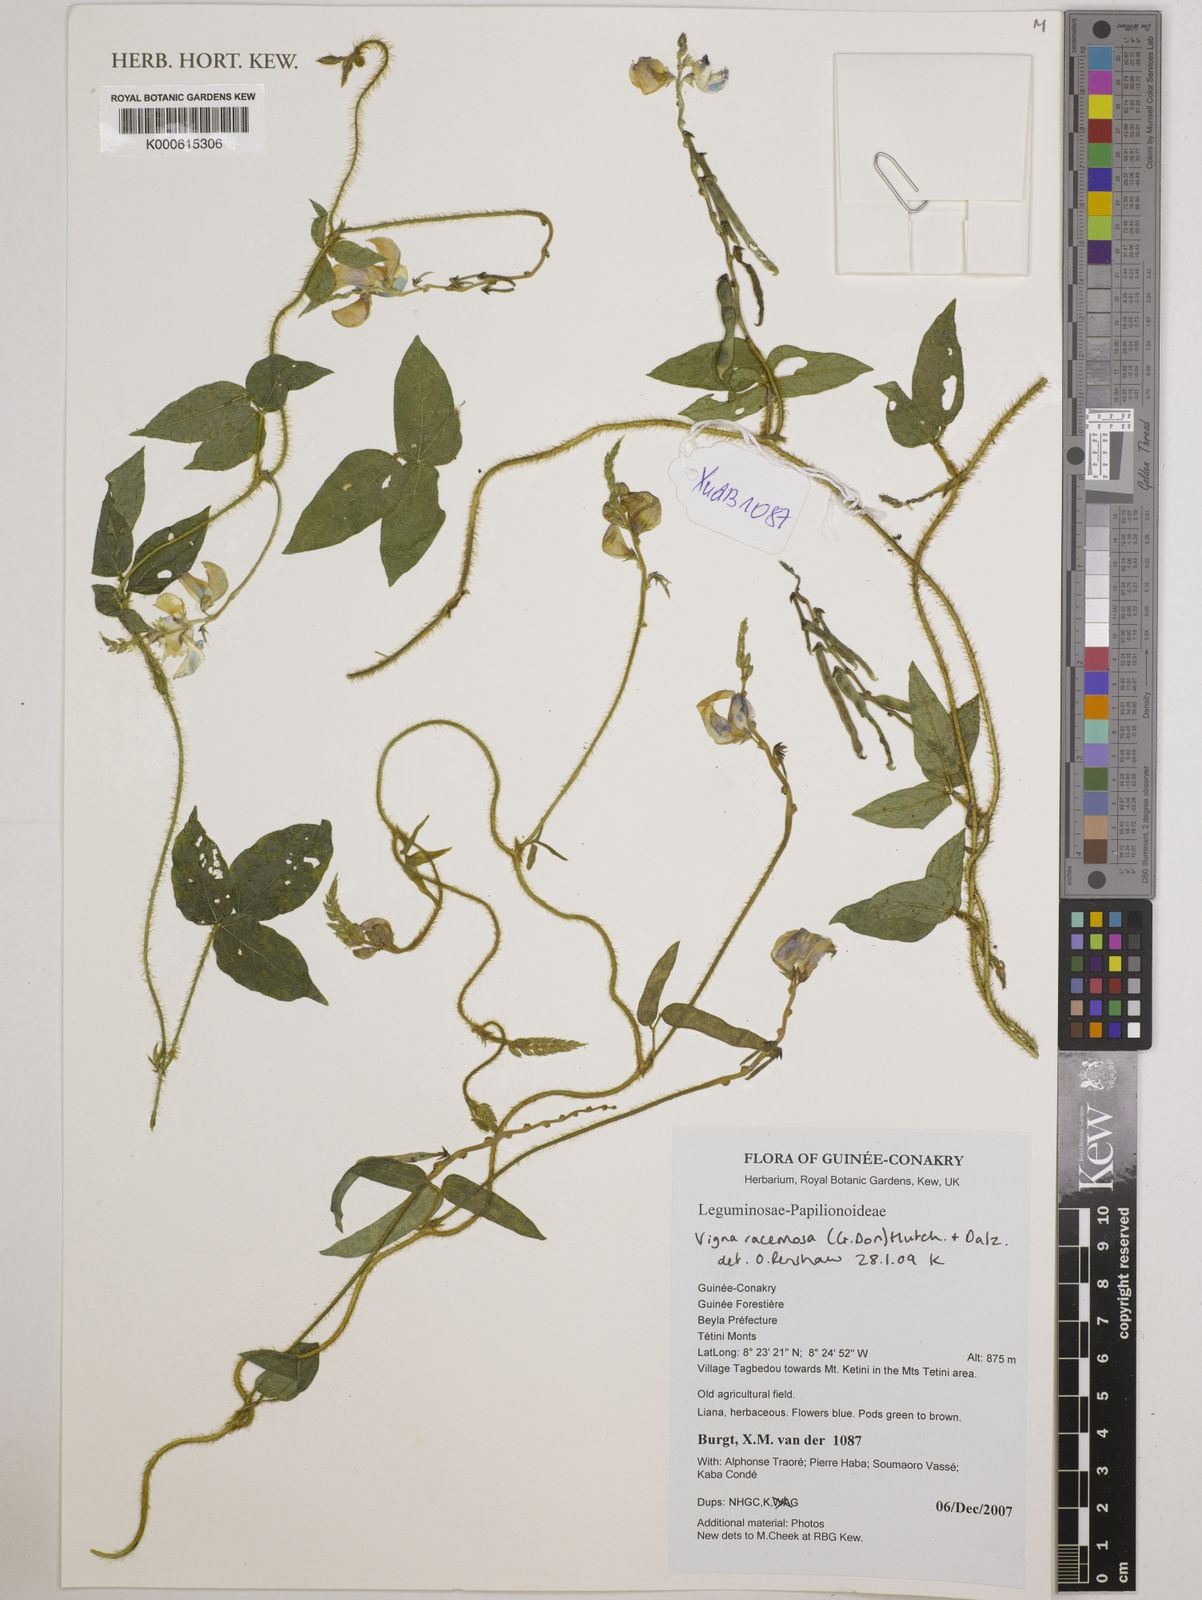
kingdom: Plantae
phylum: Tracheophyta
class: Magnoliopsida
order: Fabales
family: Fabaceae
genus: Vigna
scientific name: Vigna racemosa
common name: Beans not eaten
